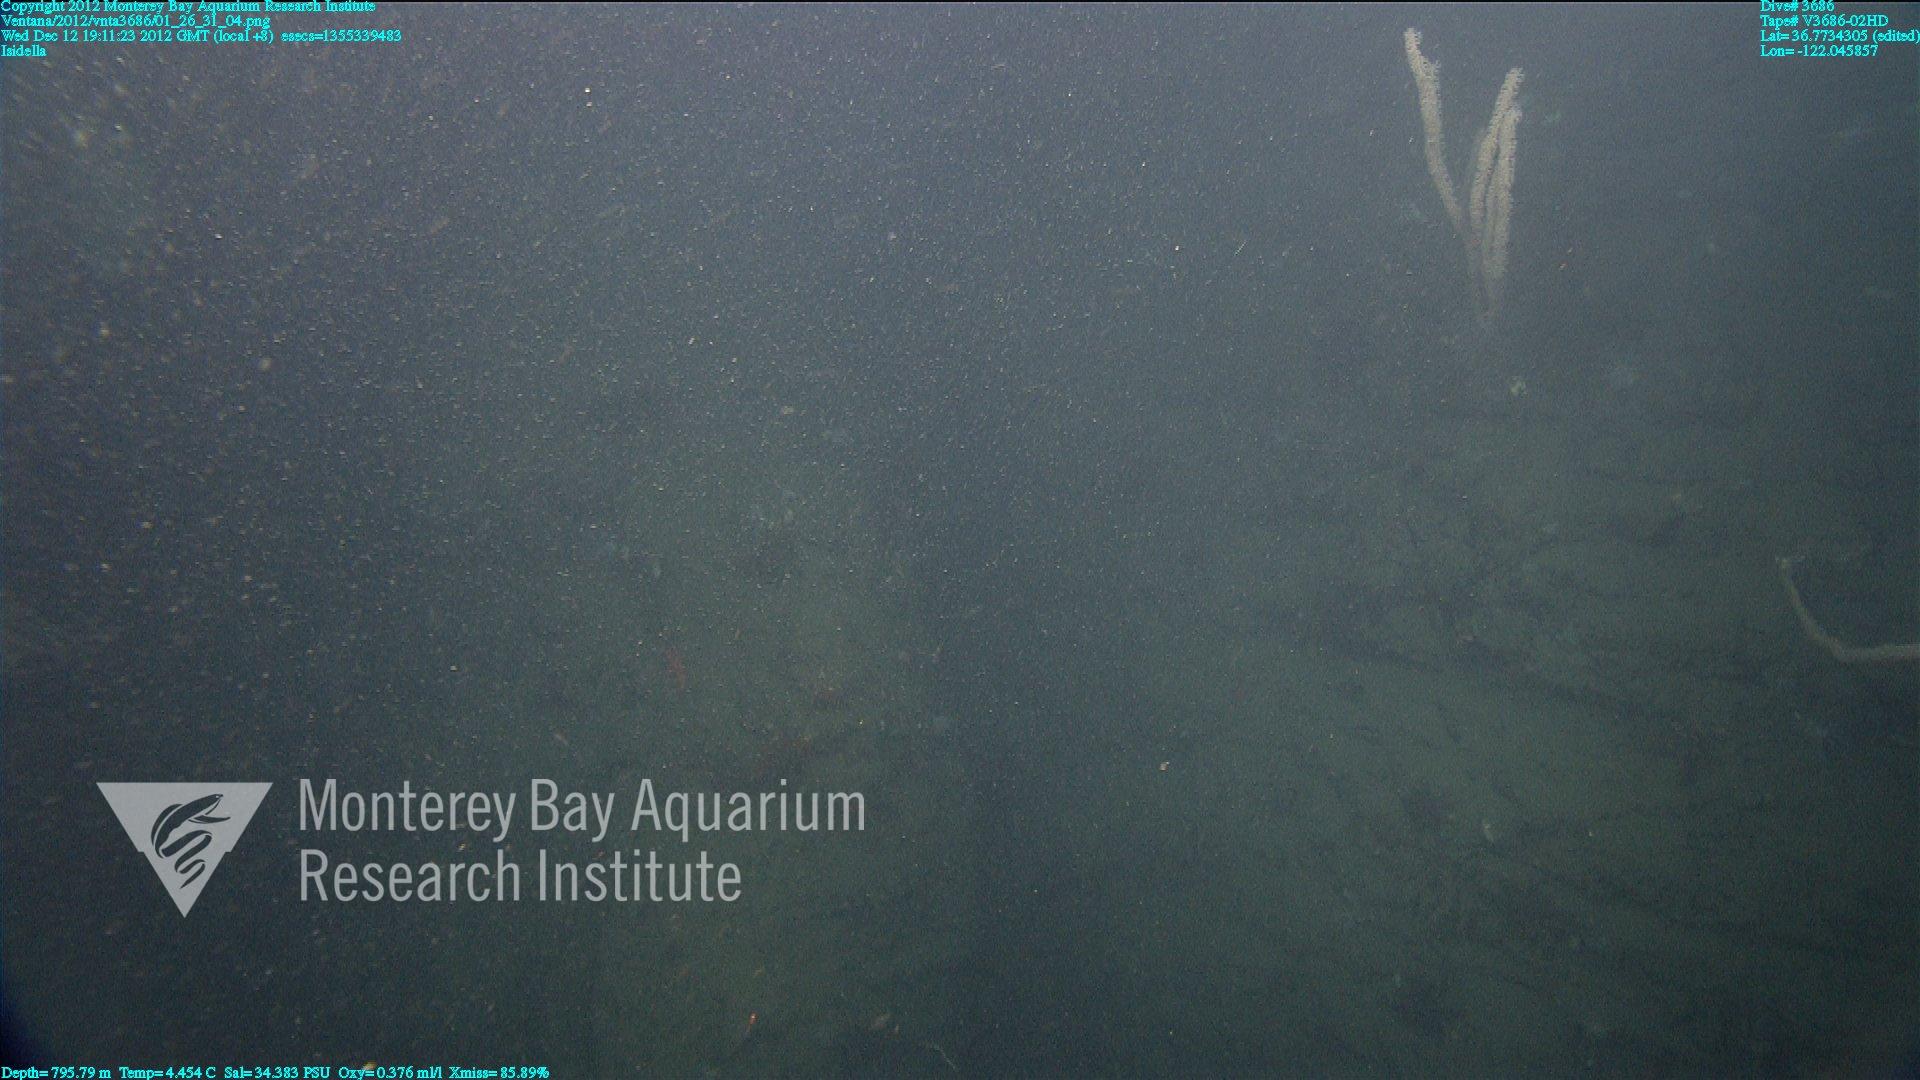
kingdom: Animalia
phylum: Cnidaria
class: Anthozoa
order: Scleralcyonacea
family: Keratoisididae
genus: Isidella
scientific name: Isidella
